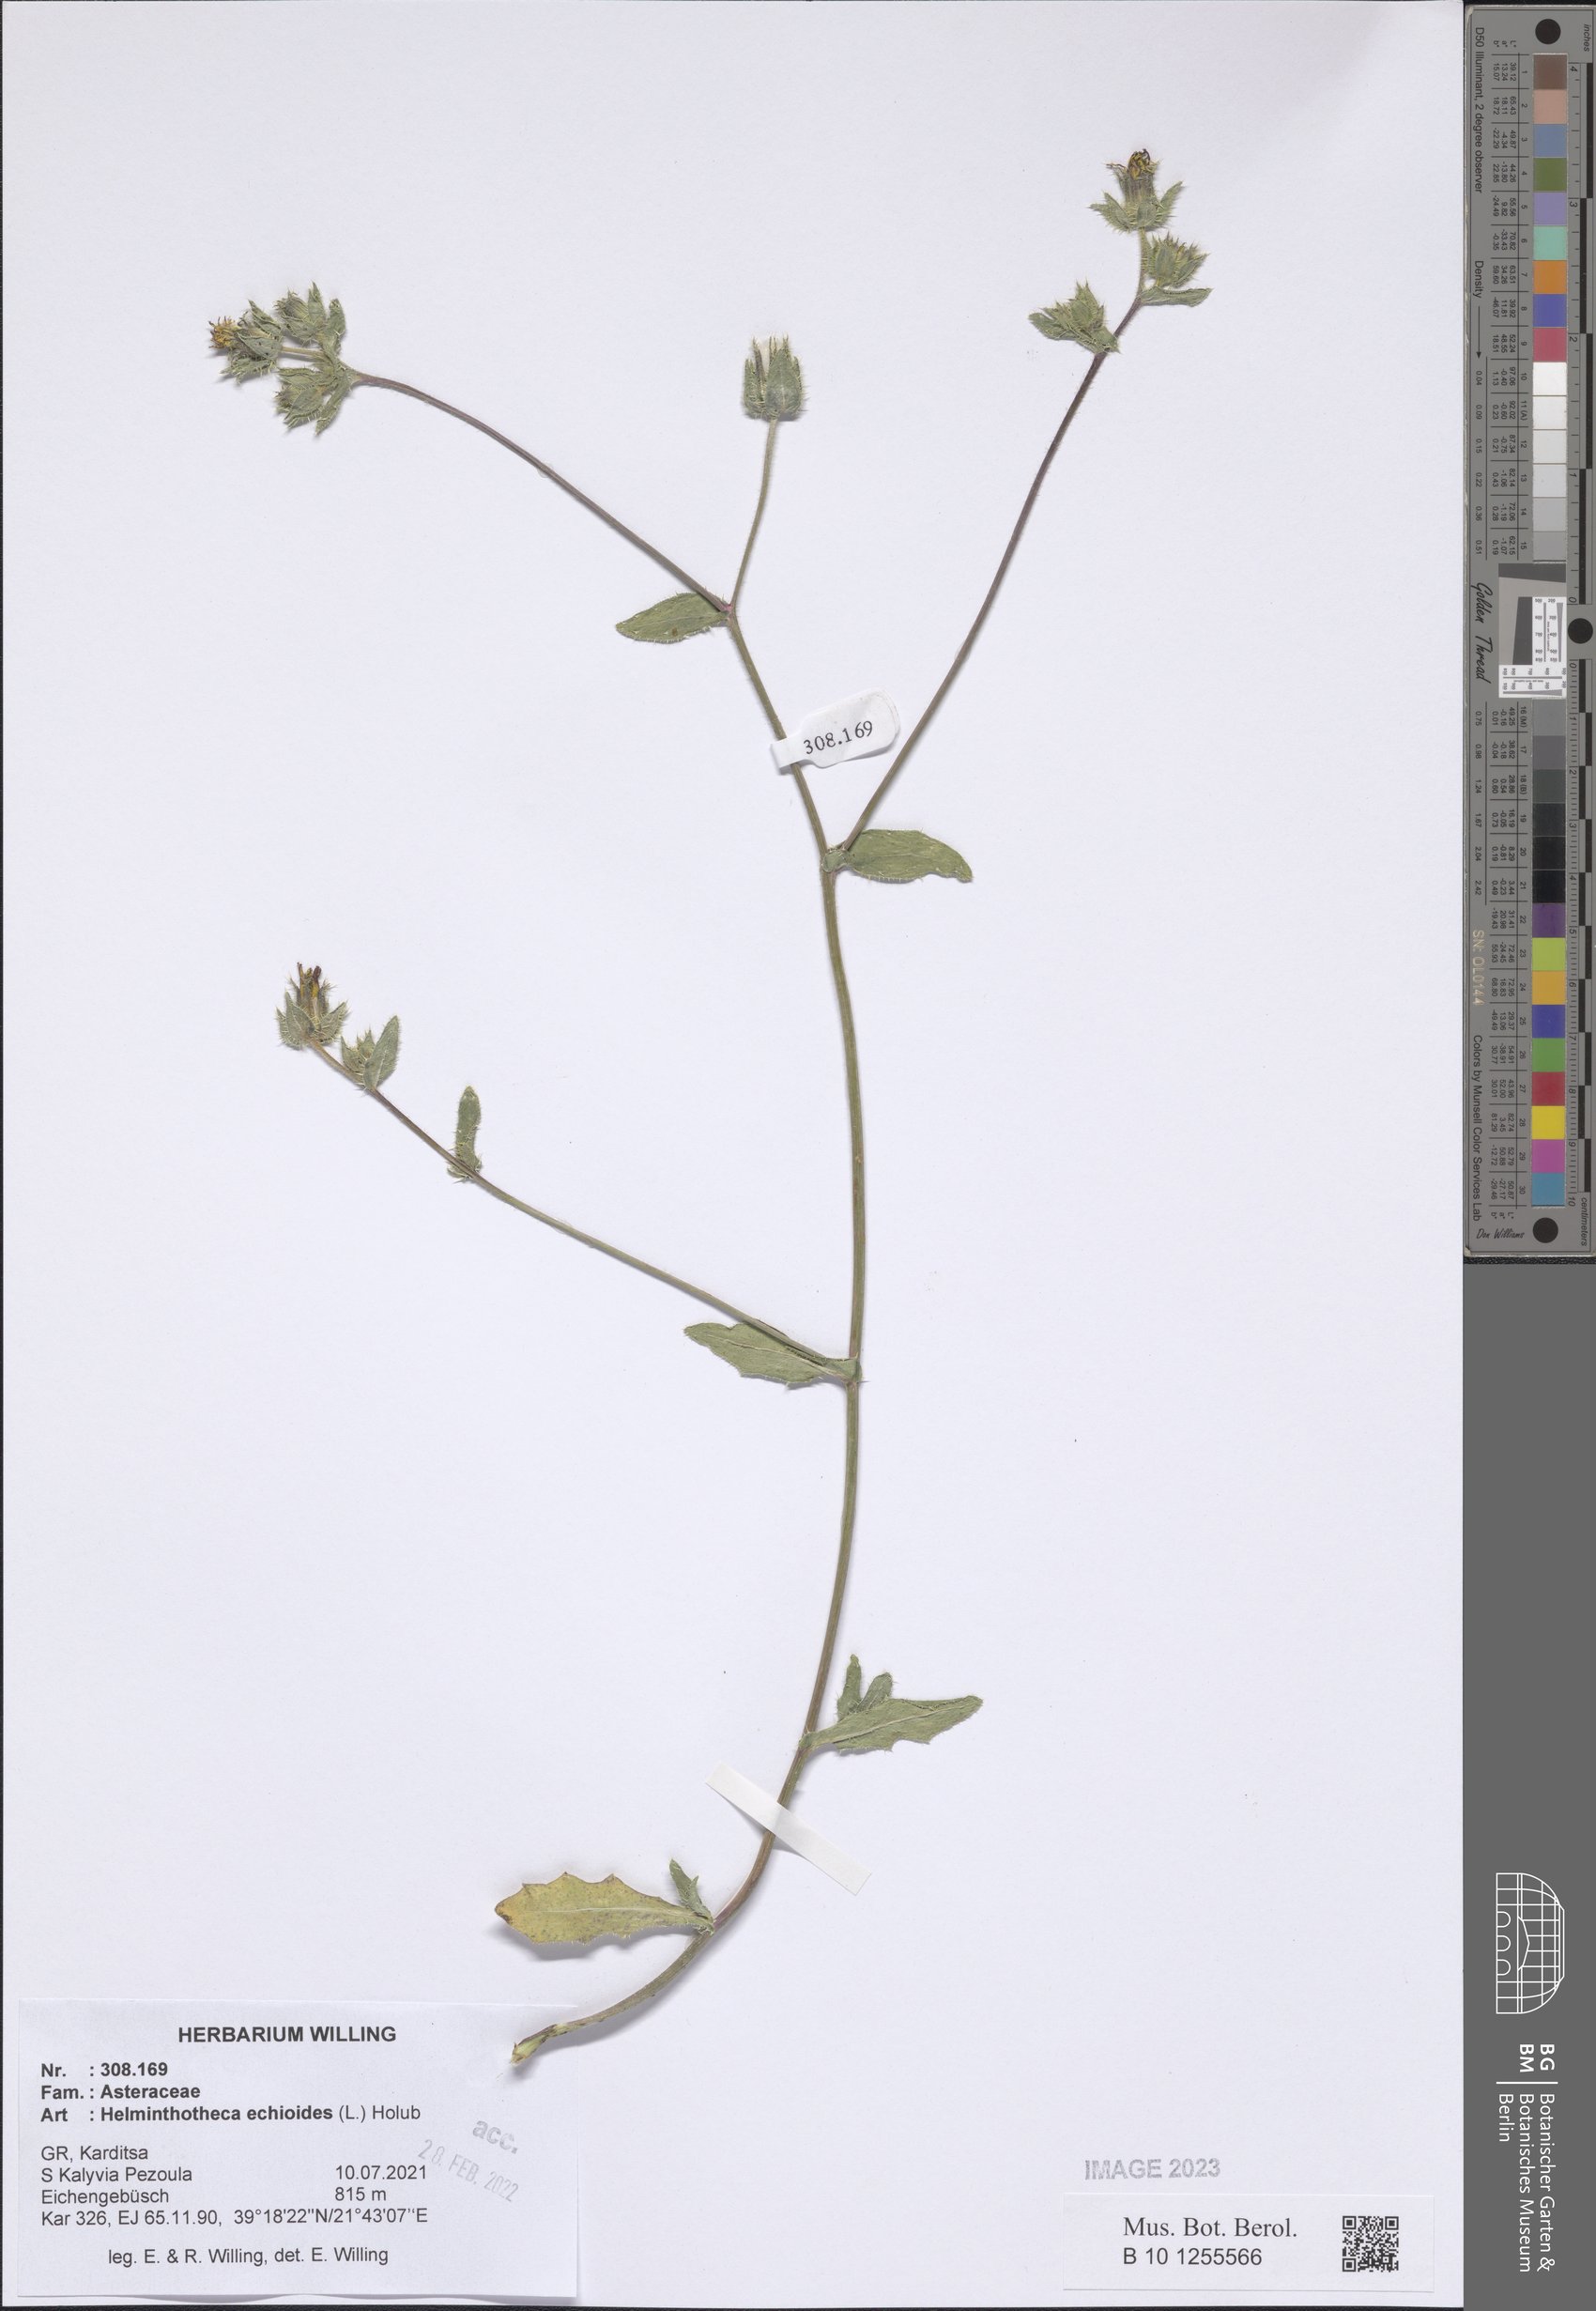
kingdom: Plantae
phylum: Tracheophyta
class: Magnoliopsida
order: Asterales
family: Asteraceae
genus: Helminthotheca
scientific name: Helminthotheca echioides
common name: Ox-tongue
